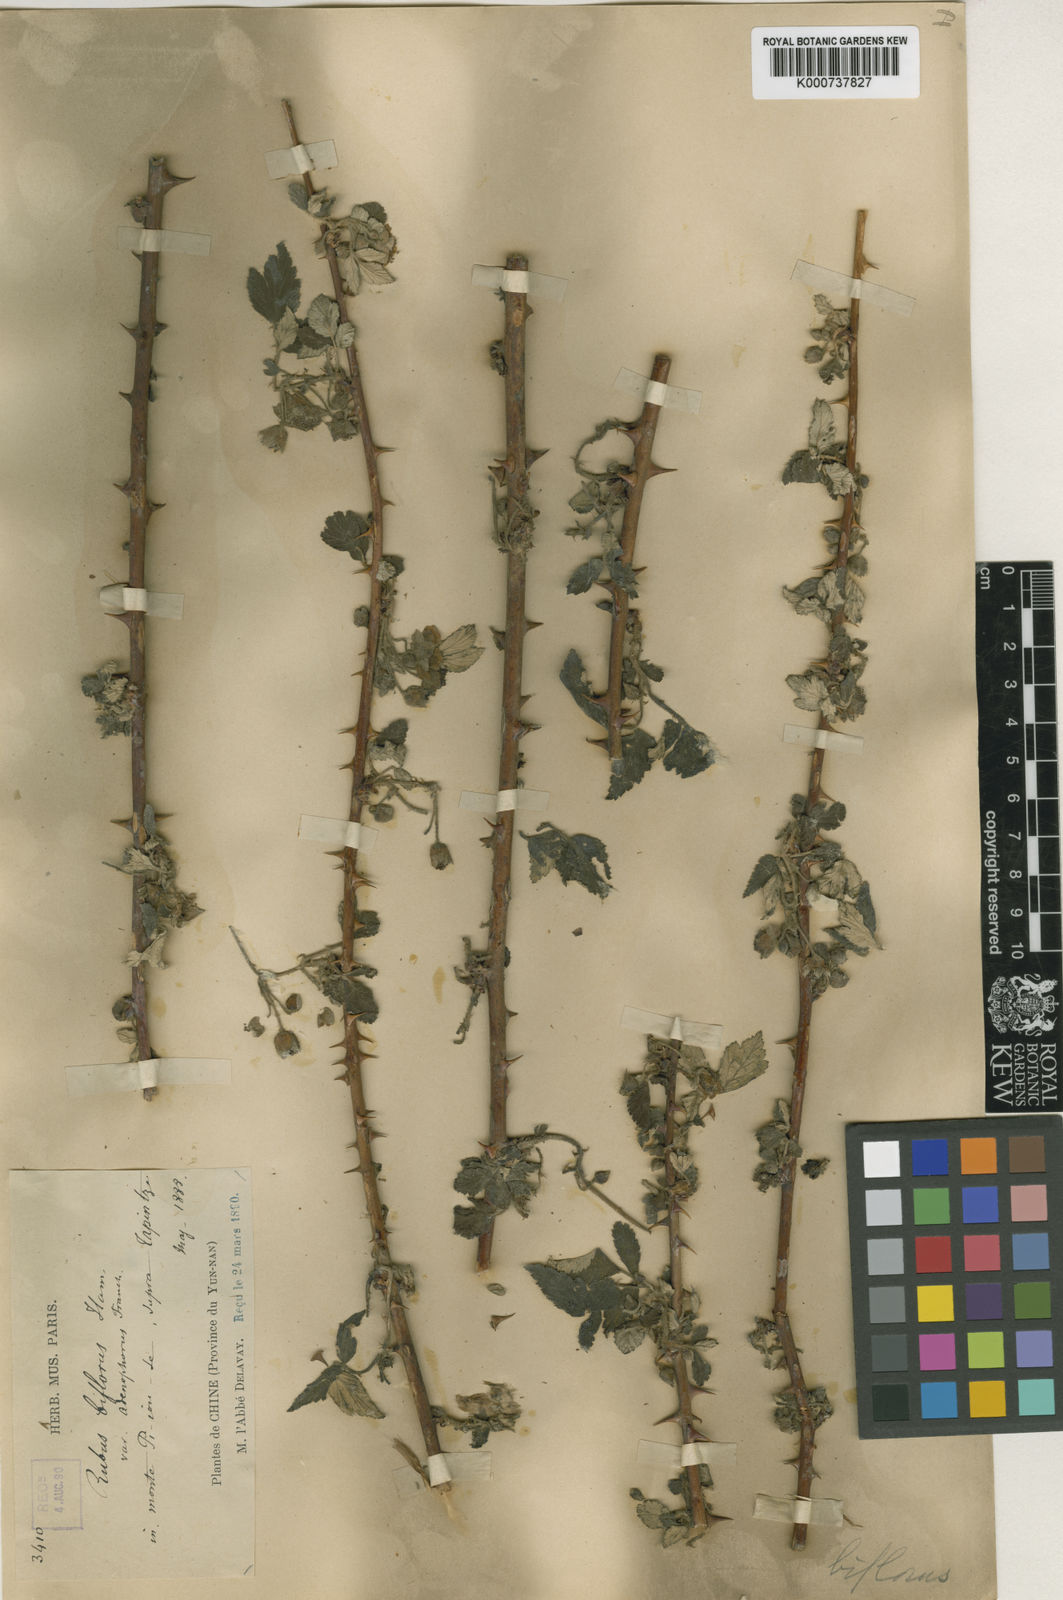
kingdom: Plantae
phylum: Tracheophyta
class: Magnoliopsida
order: Rosales
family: Rosaceae
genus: Rubus
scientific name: Rubus biflorus
